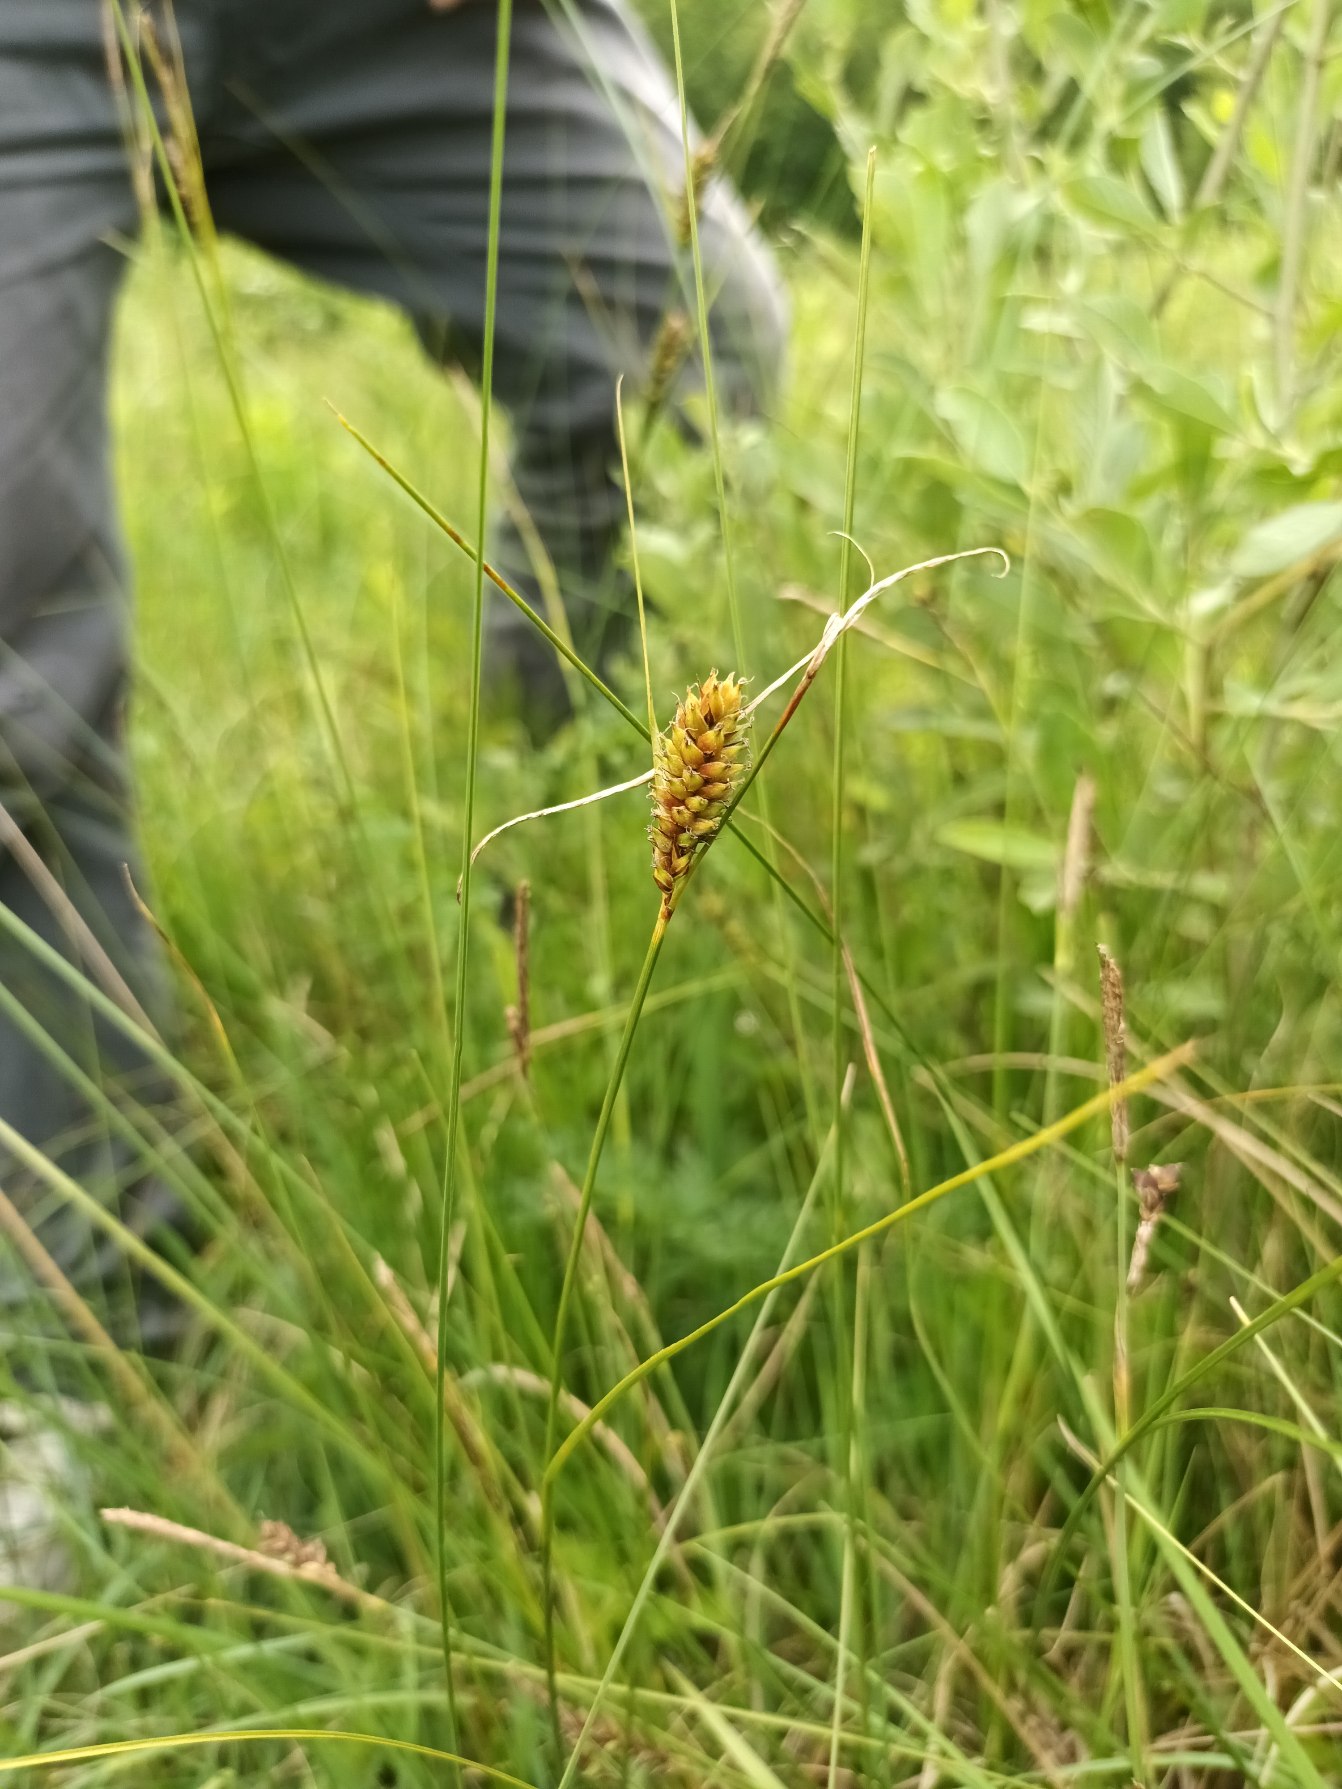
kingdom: Plantae
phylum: Tracheophyta
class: Liliopsida
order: Poales
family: Cyperaceae
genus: Carex
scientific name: Carex lasiocarpa
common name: Tråd-star
